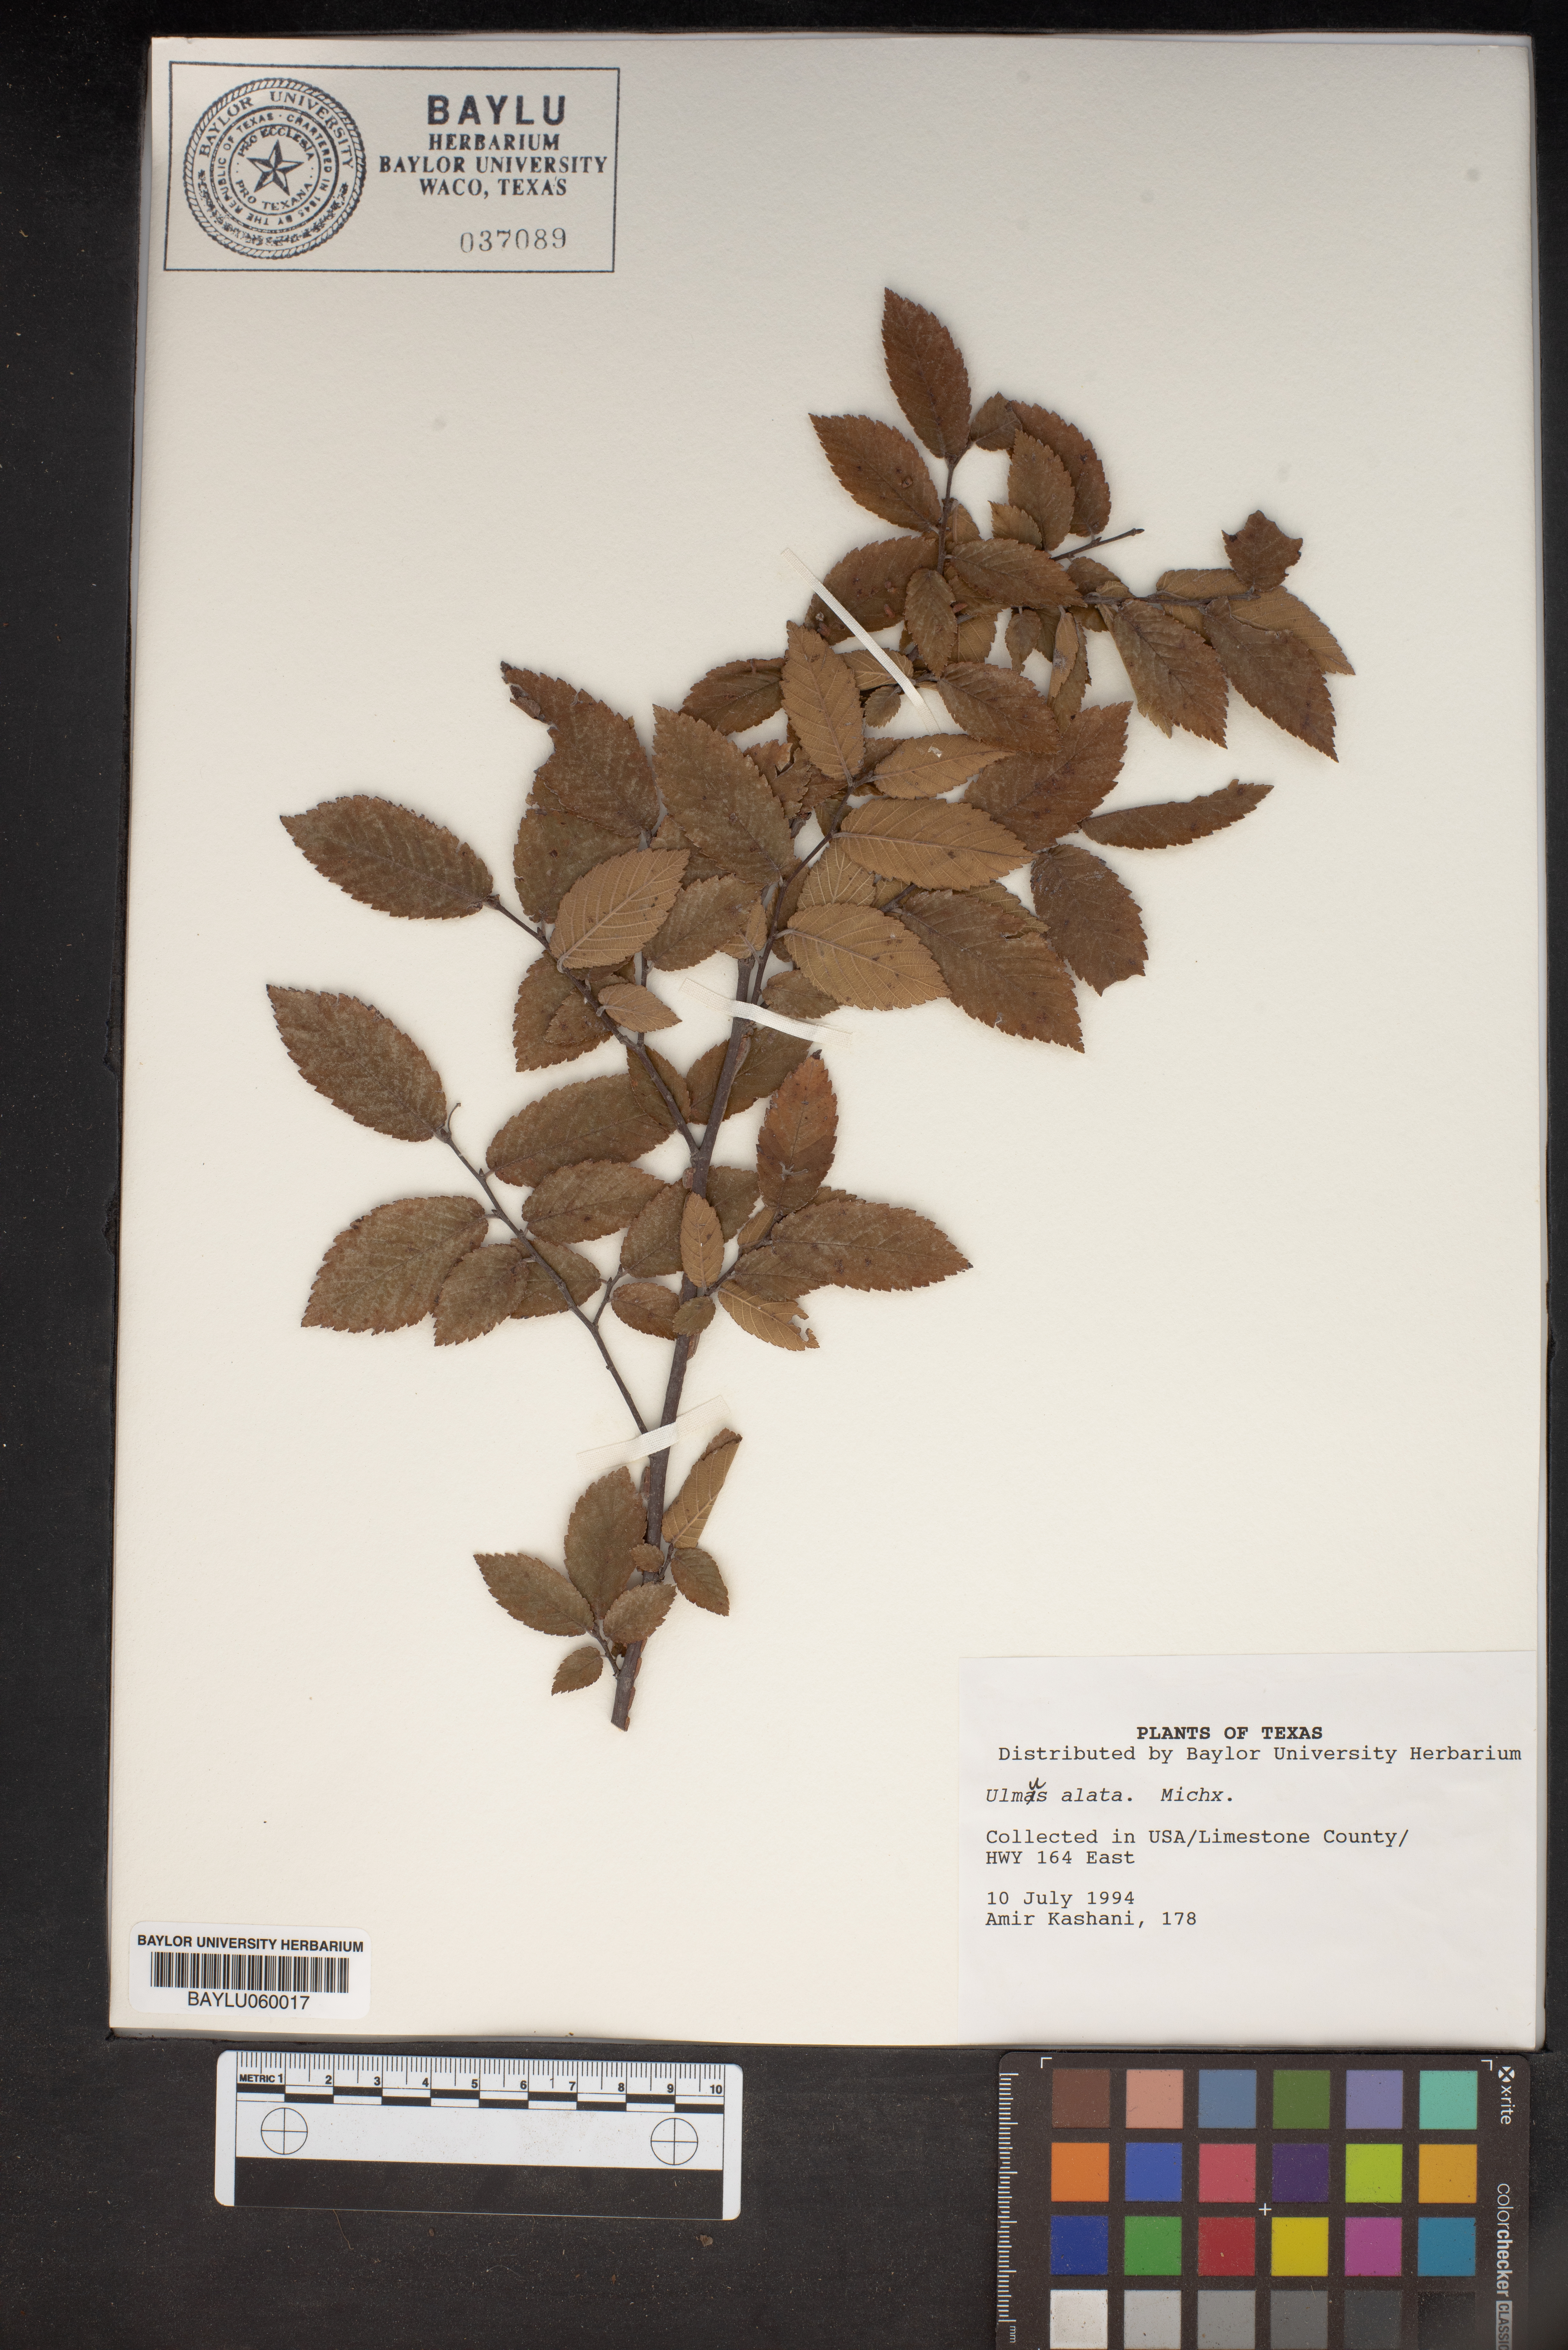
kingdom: Plantae
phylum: Tracheophyta
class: Magnoliopsida
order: Rosales
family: Ulmaceae
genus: Ulmus
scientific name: Ulmus alata
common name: Winged elm
